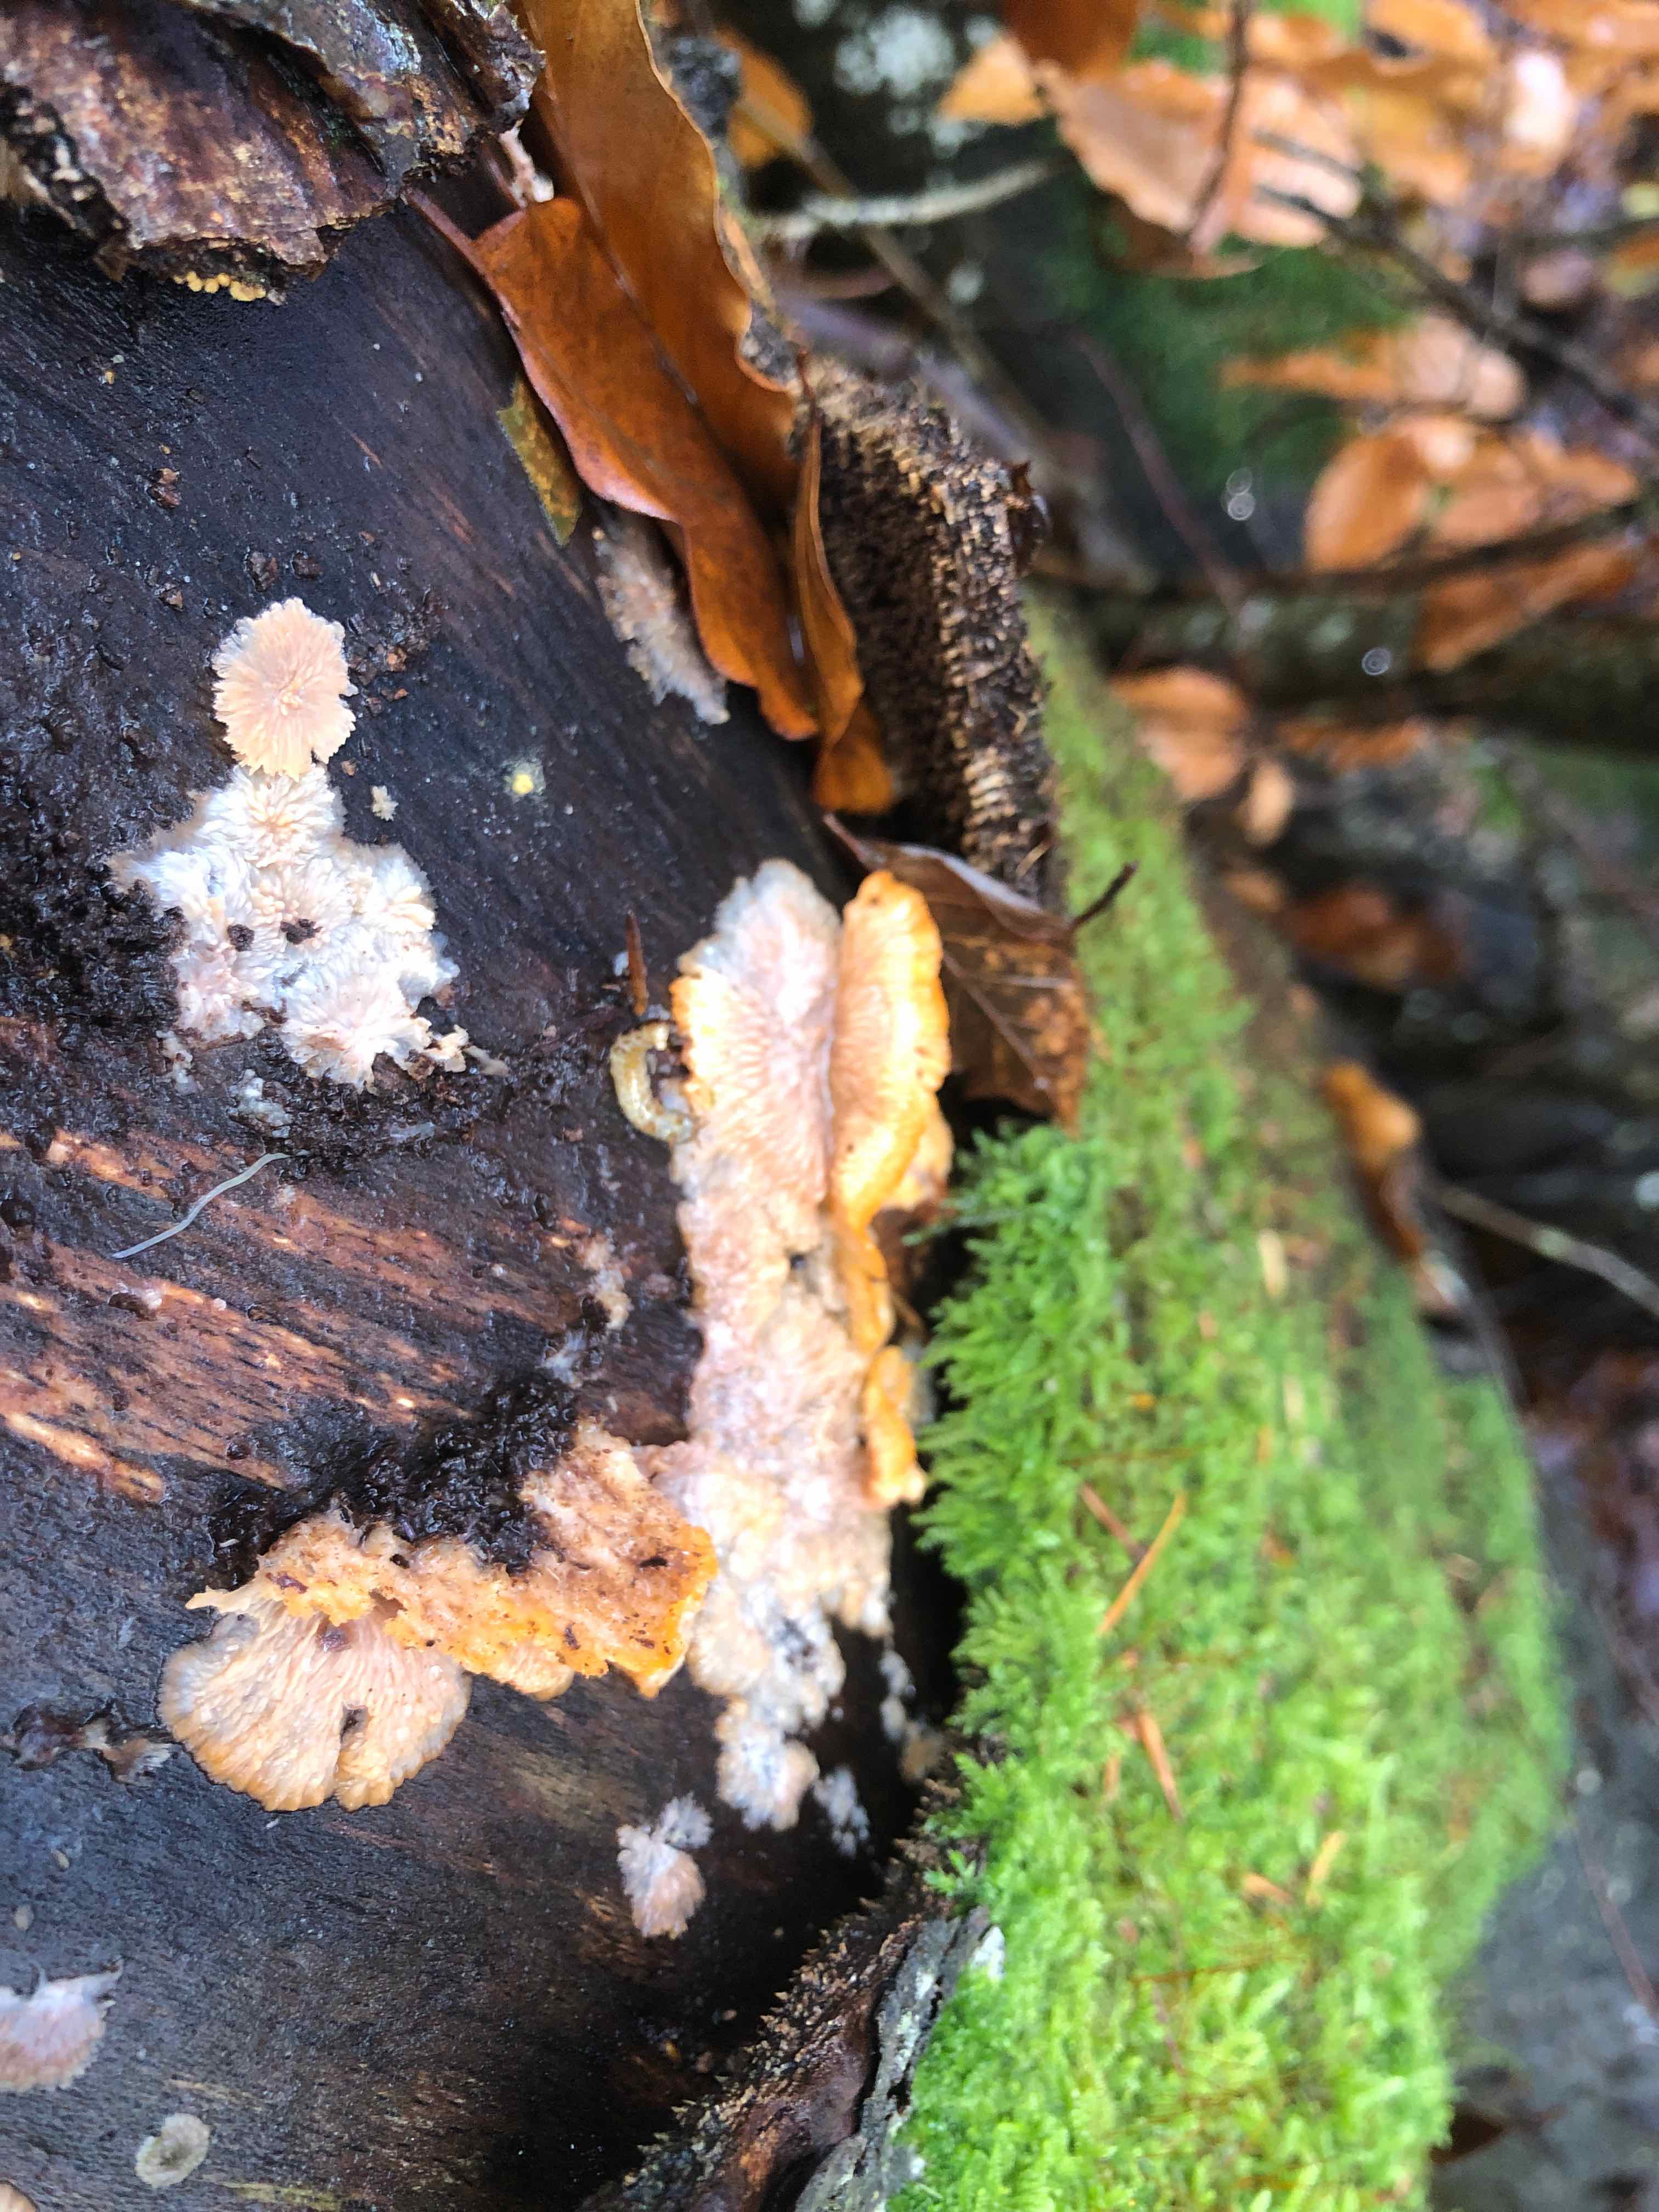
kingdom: Fungi
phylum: Basidiomycota
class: Agaricomycetes
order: Polyporales
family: Meruliaceae
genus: Phlebia
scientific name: Phlebia radiata
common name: stråle-åresvamp
